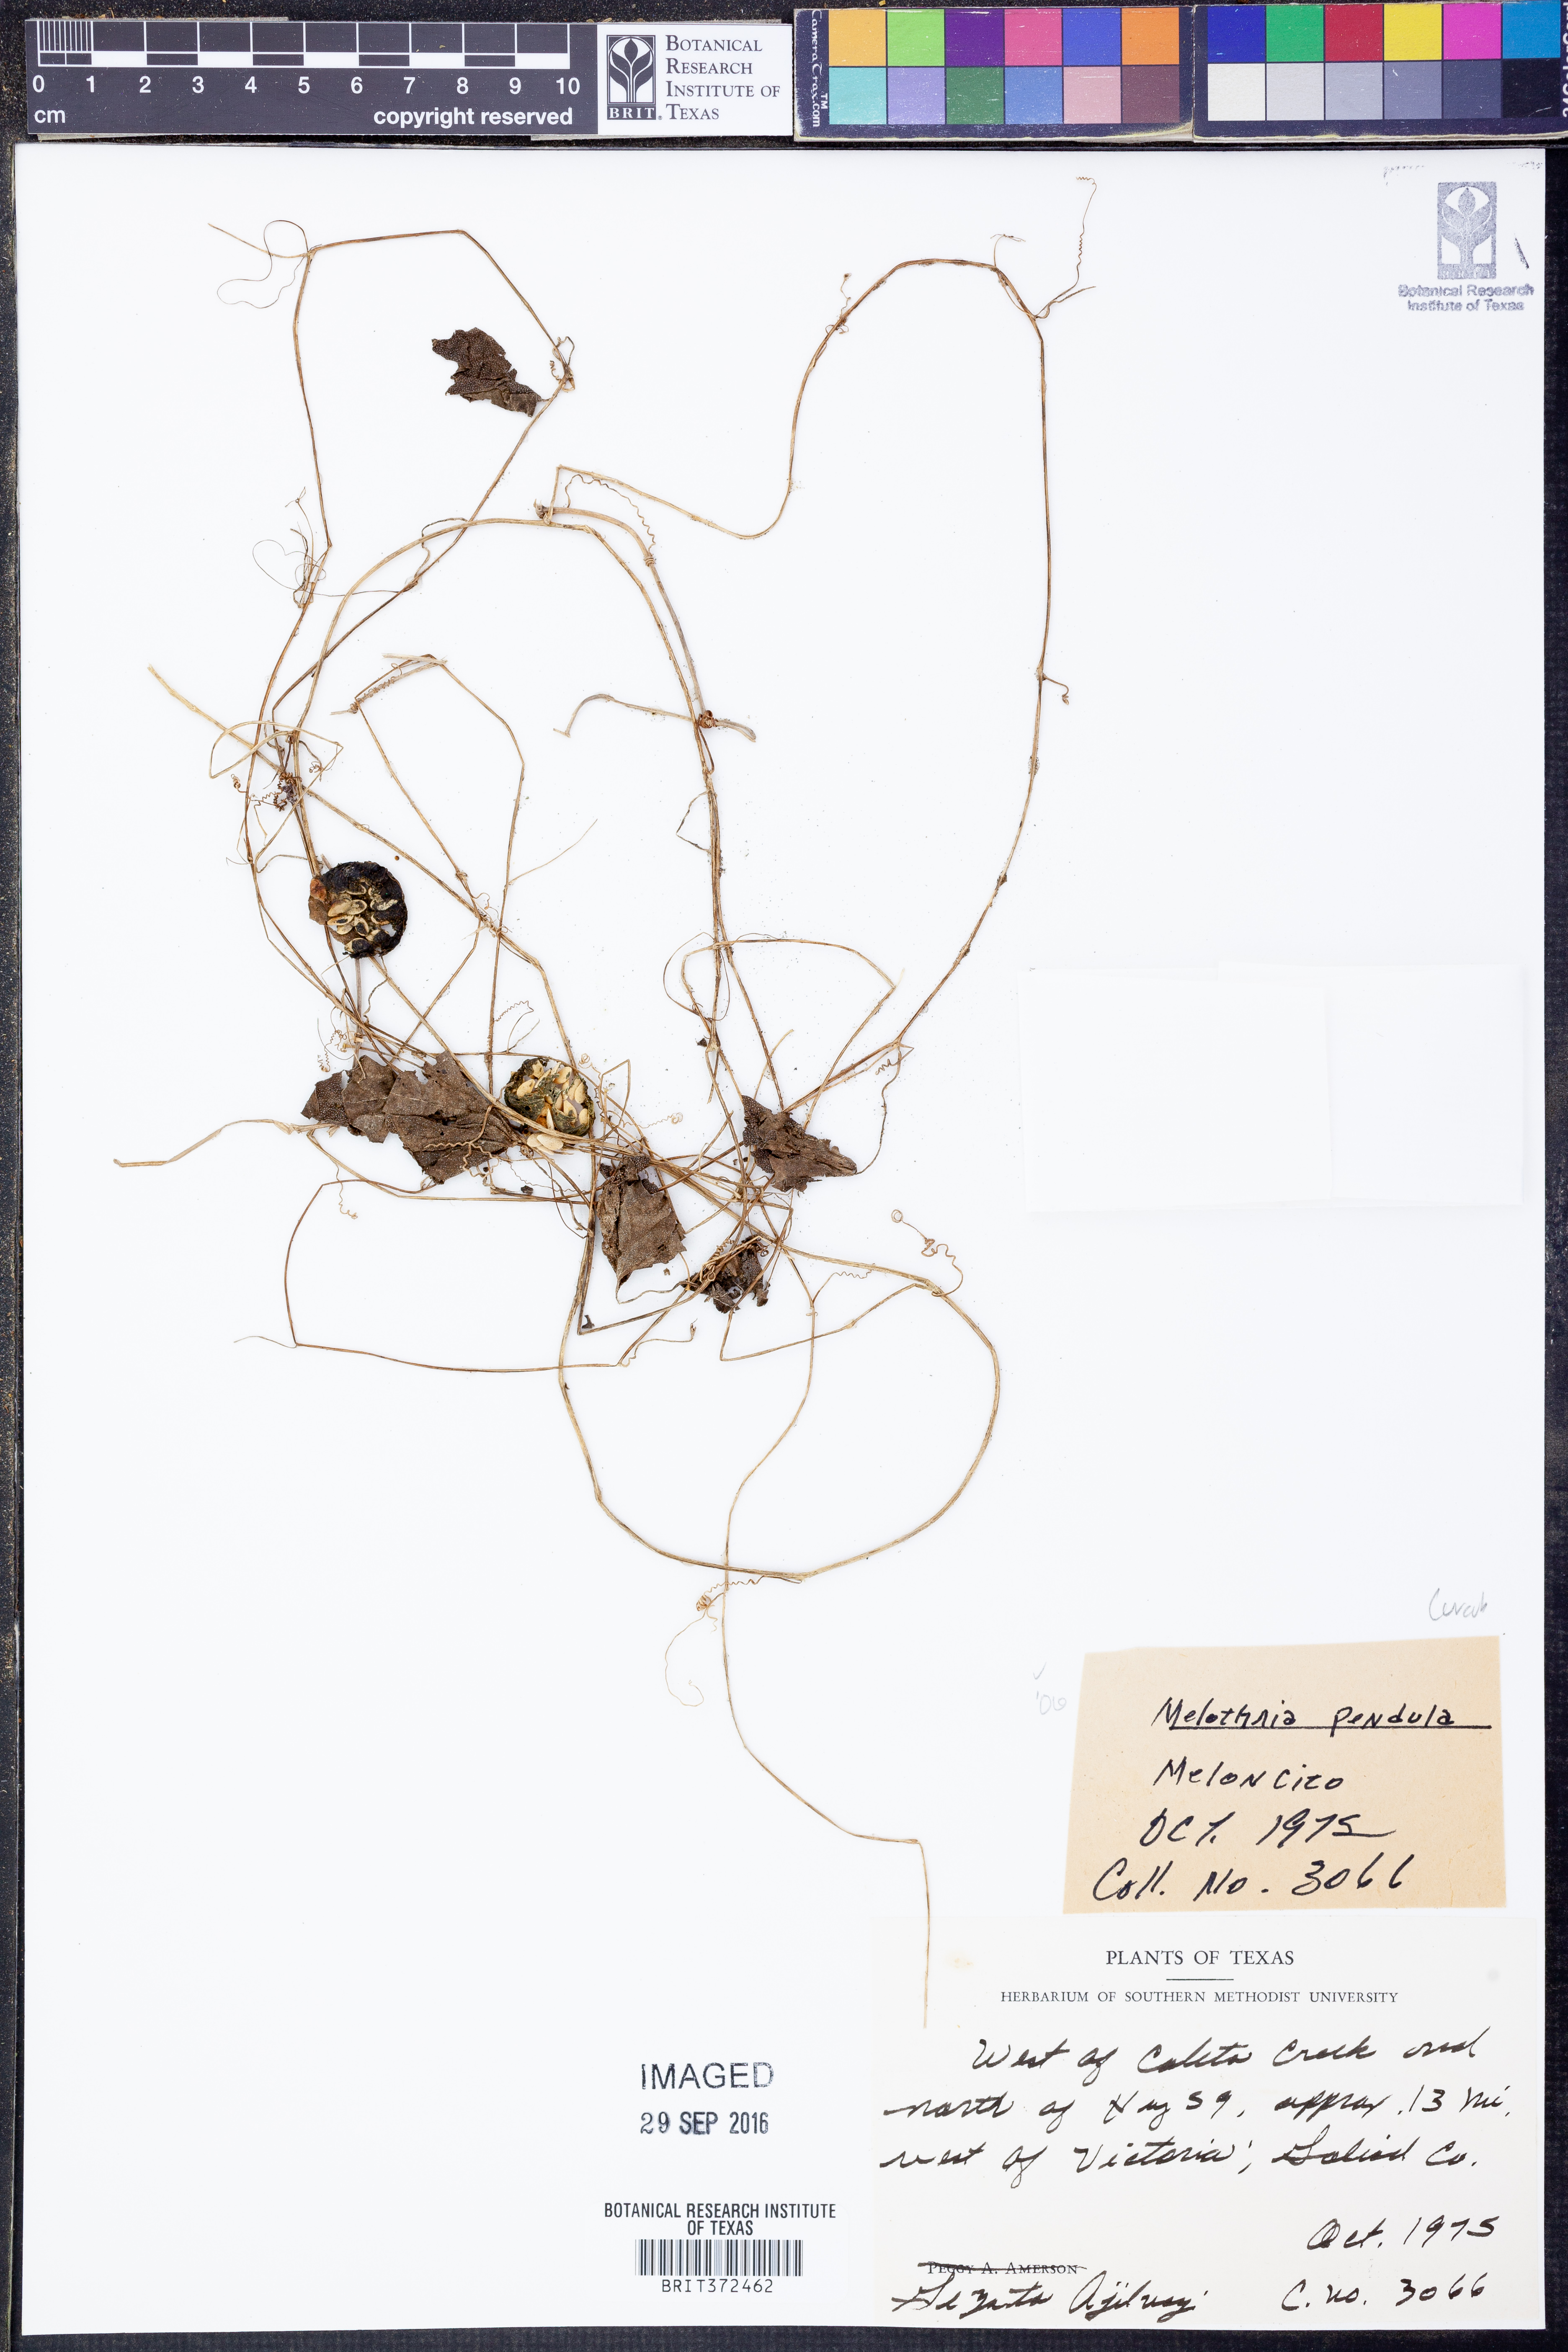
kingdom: Plantae
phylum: Tracheophyta
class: Magnoliopsida
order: Cucurbitales
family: Cucurbitaceae
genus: Melothria
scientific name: Melothria pendula
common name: Creeping-cucumber
